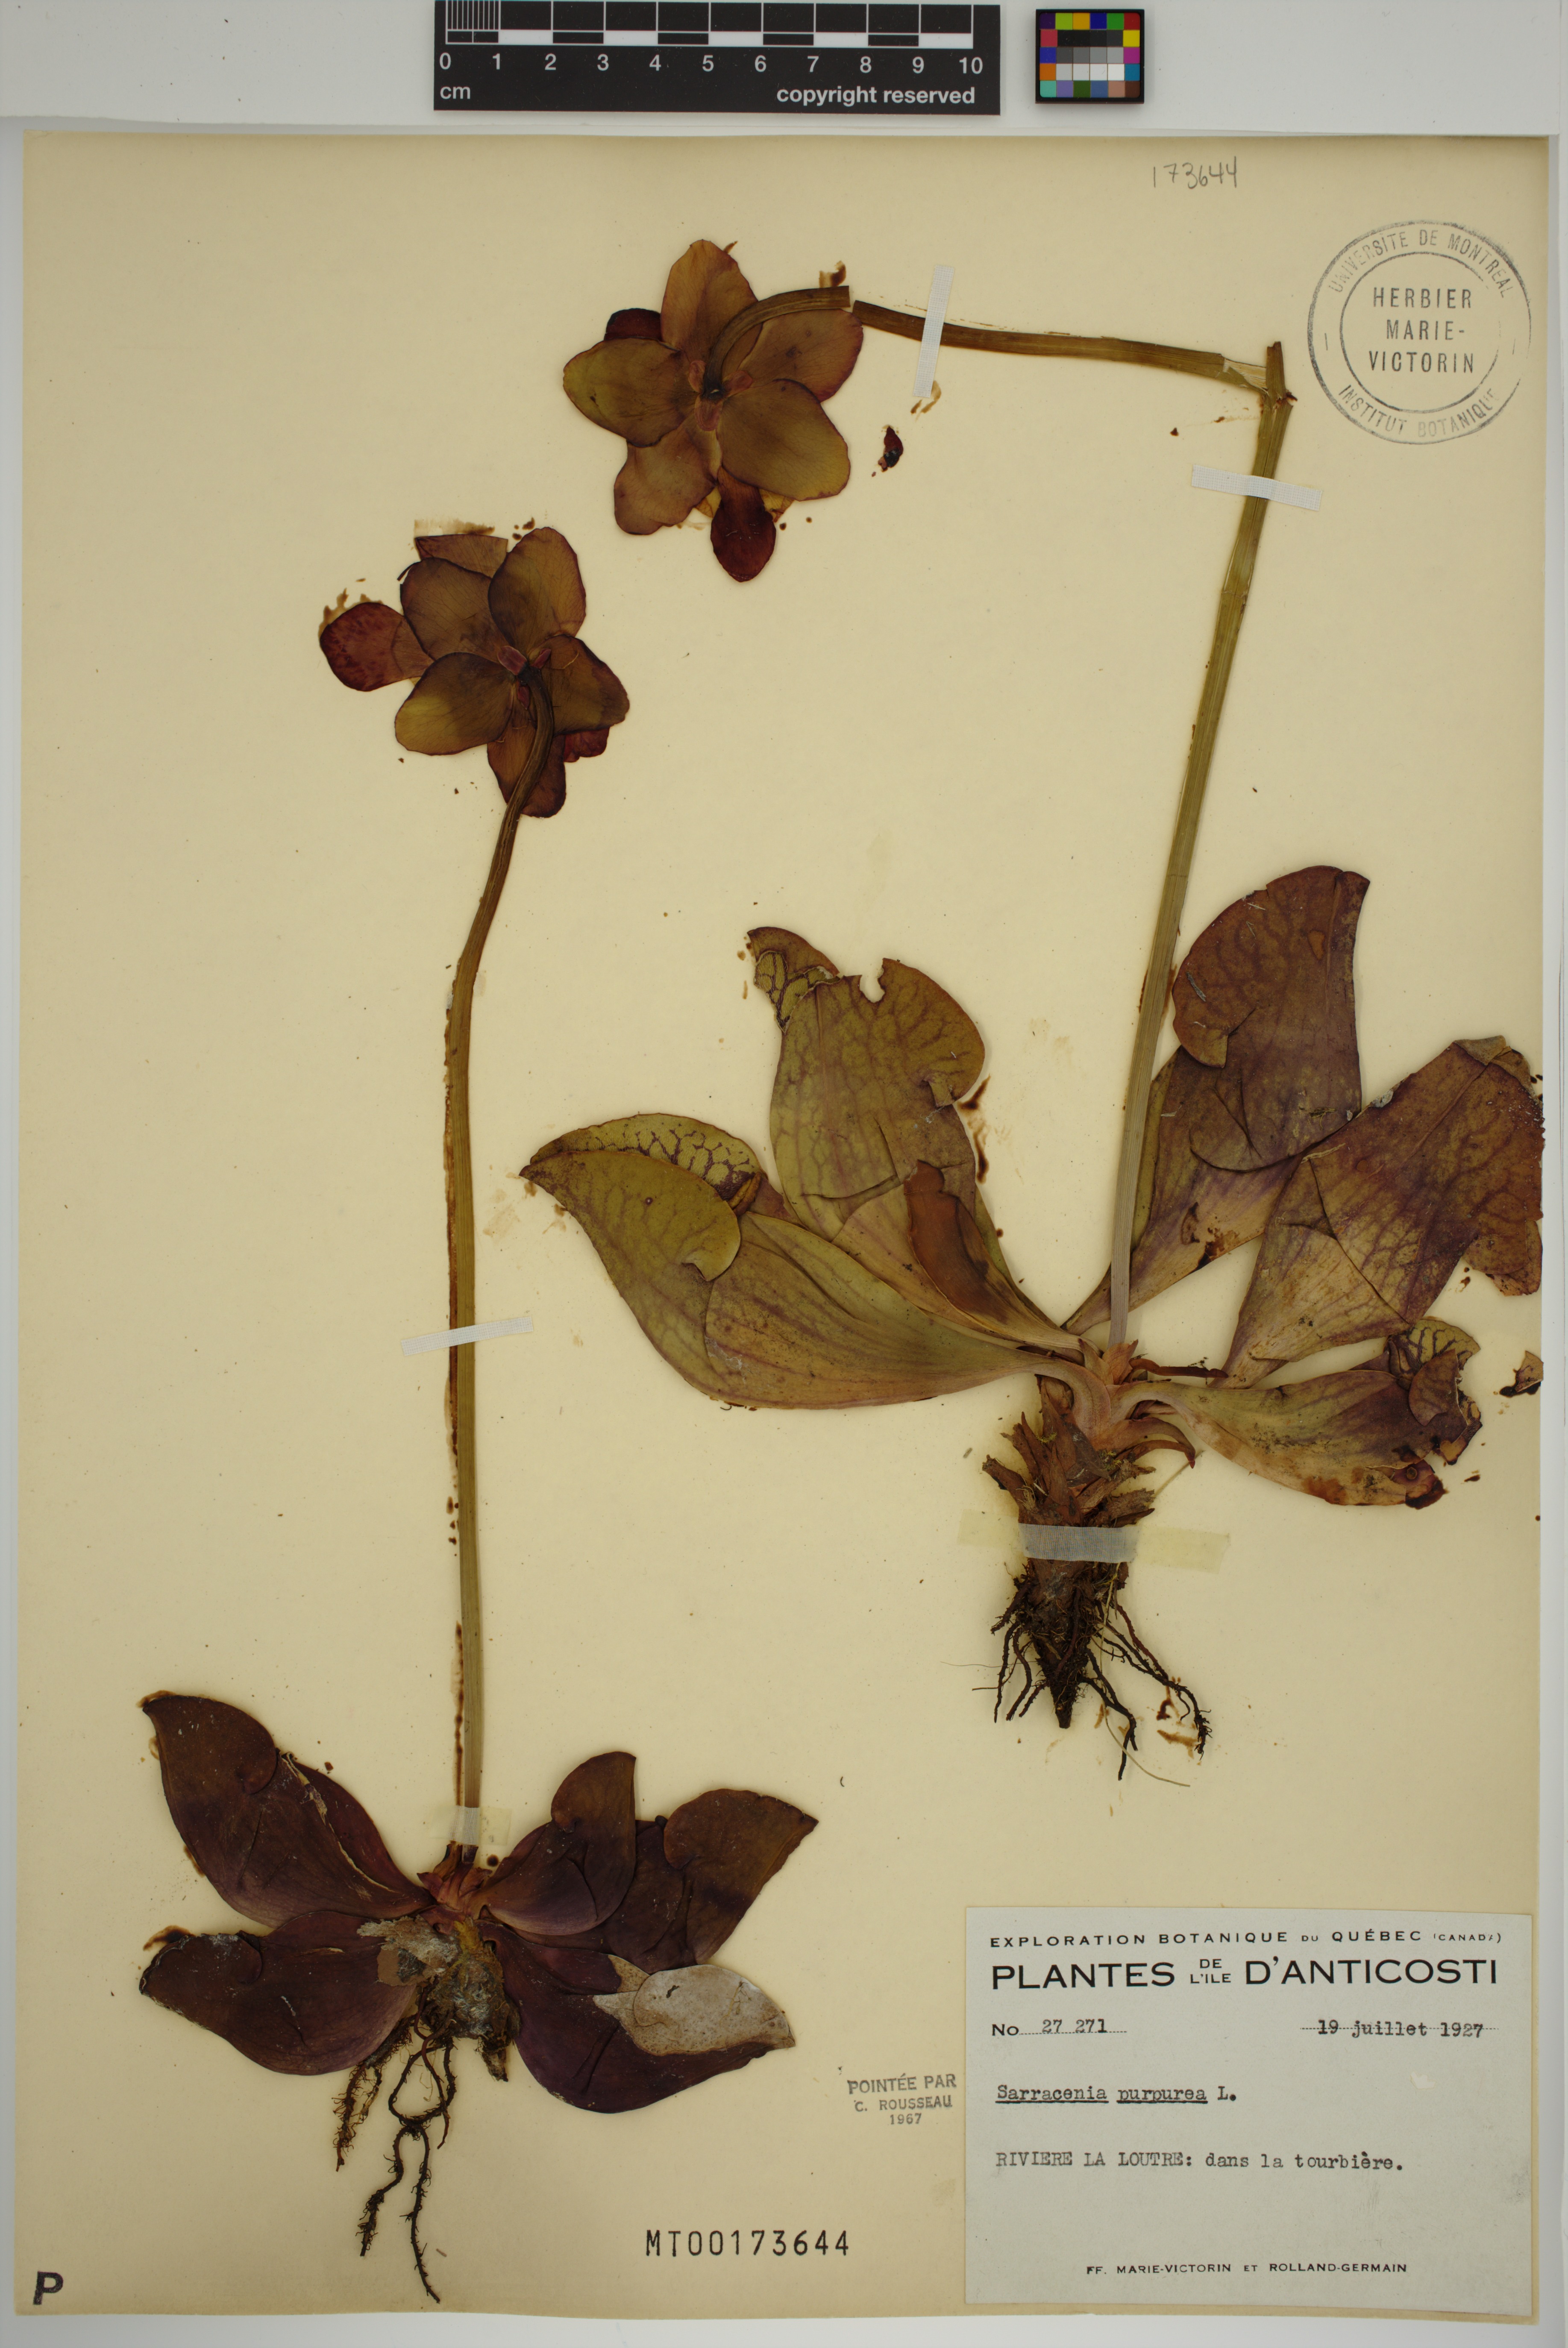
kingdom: Plantae
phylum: Tracheophyta
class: Magnoliopsida
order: Ericales
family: Sarraceniaceae
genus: Sarracenia
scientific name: Sarracenia purpurea
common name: Pitcherplant
